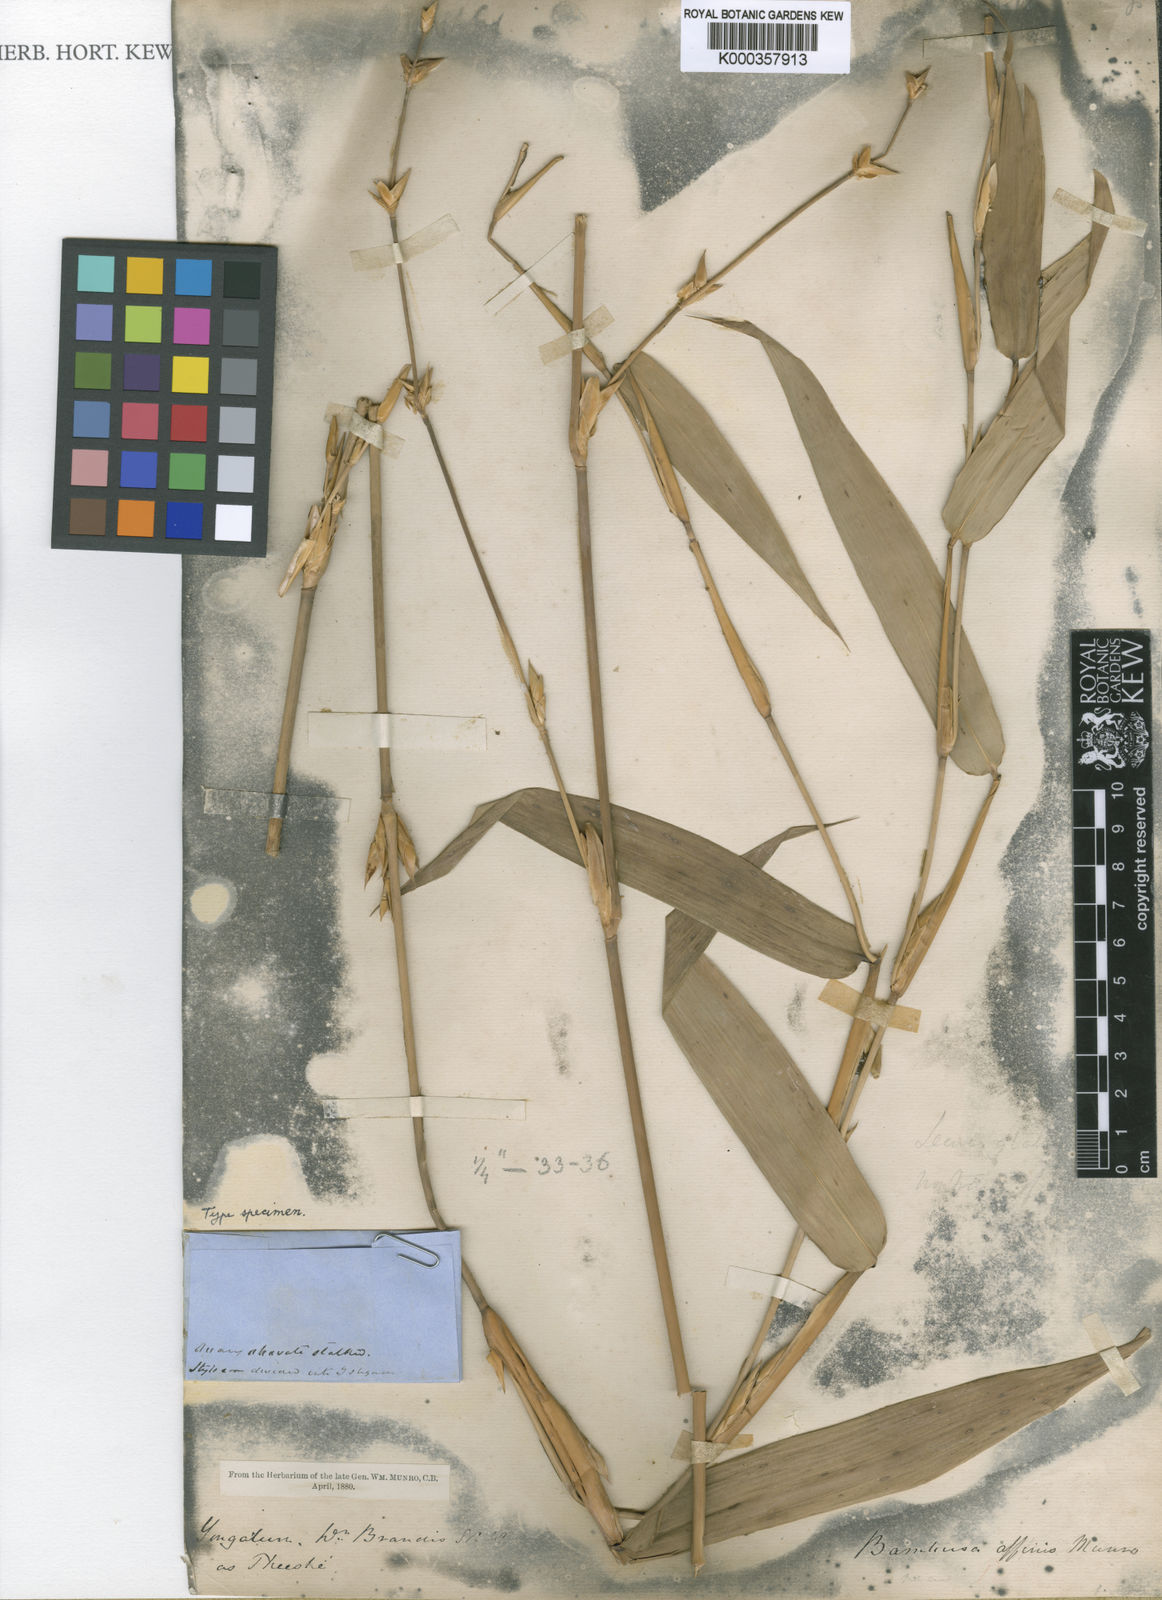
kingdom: Plantae
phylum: Tracheophyta
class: Liliopsida
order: Poales
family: Poaceae
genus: Bambusa
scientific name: Bambusa affinis
